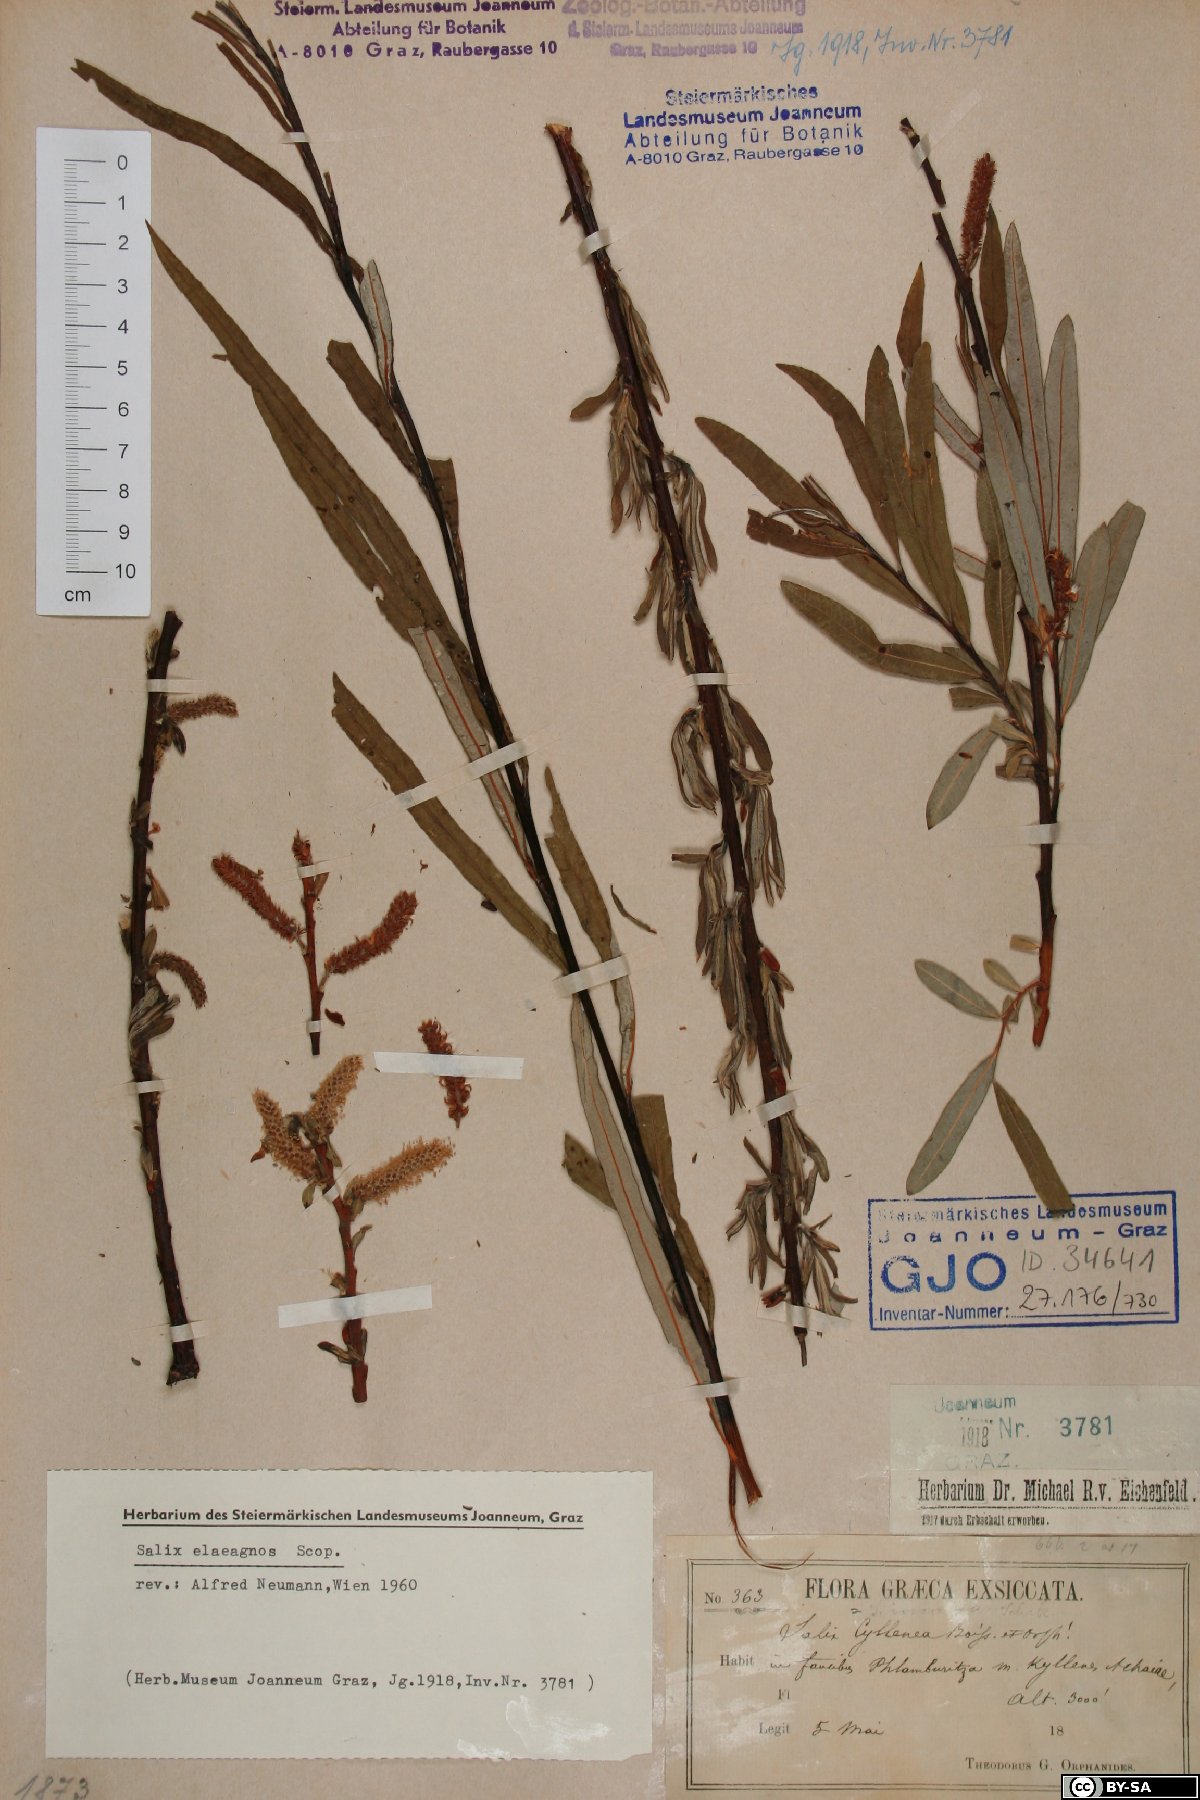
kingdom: Plantae
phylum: Tracheophyta
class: Magnoliopsida
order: Malpighiales
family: Salicaceae
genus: Salix
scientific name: Salix eleagnos
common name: Elaeagnus willow
